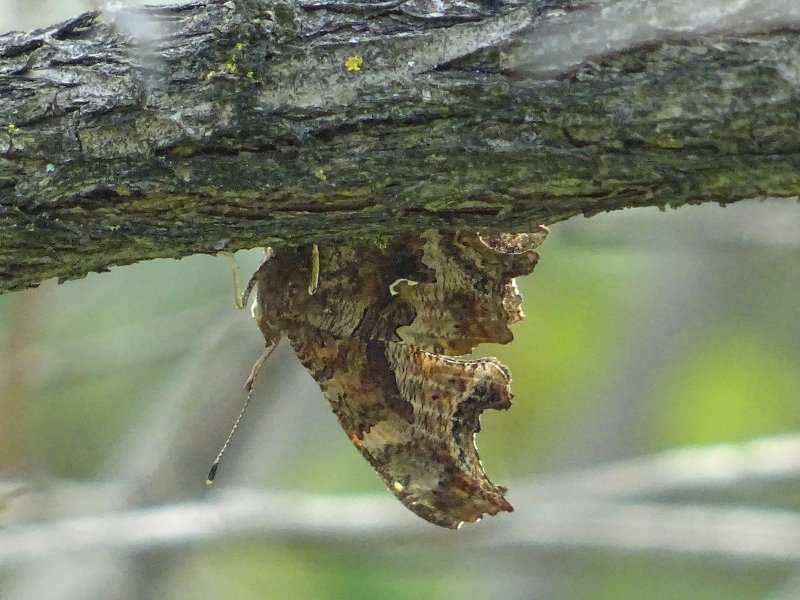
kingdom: Animalia
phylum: Arthropoda
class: Insecta
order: Lepidoptera
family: Nymphalidae
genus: Polygonia
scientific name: Polygonia comma
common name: Eastern Comma
